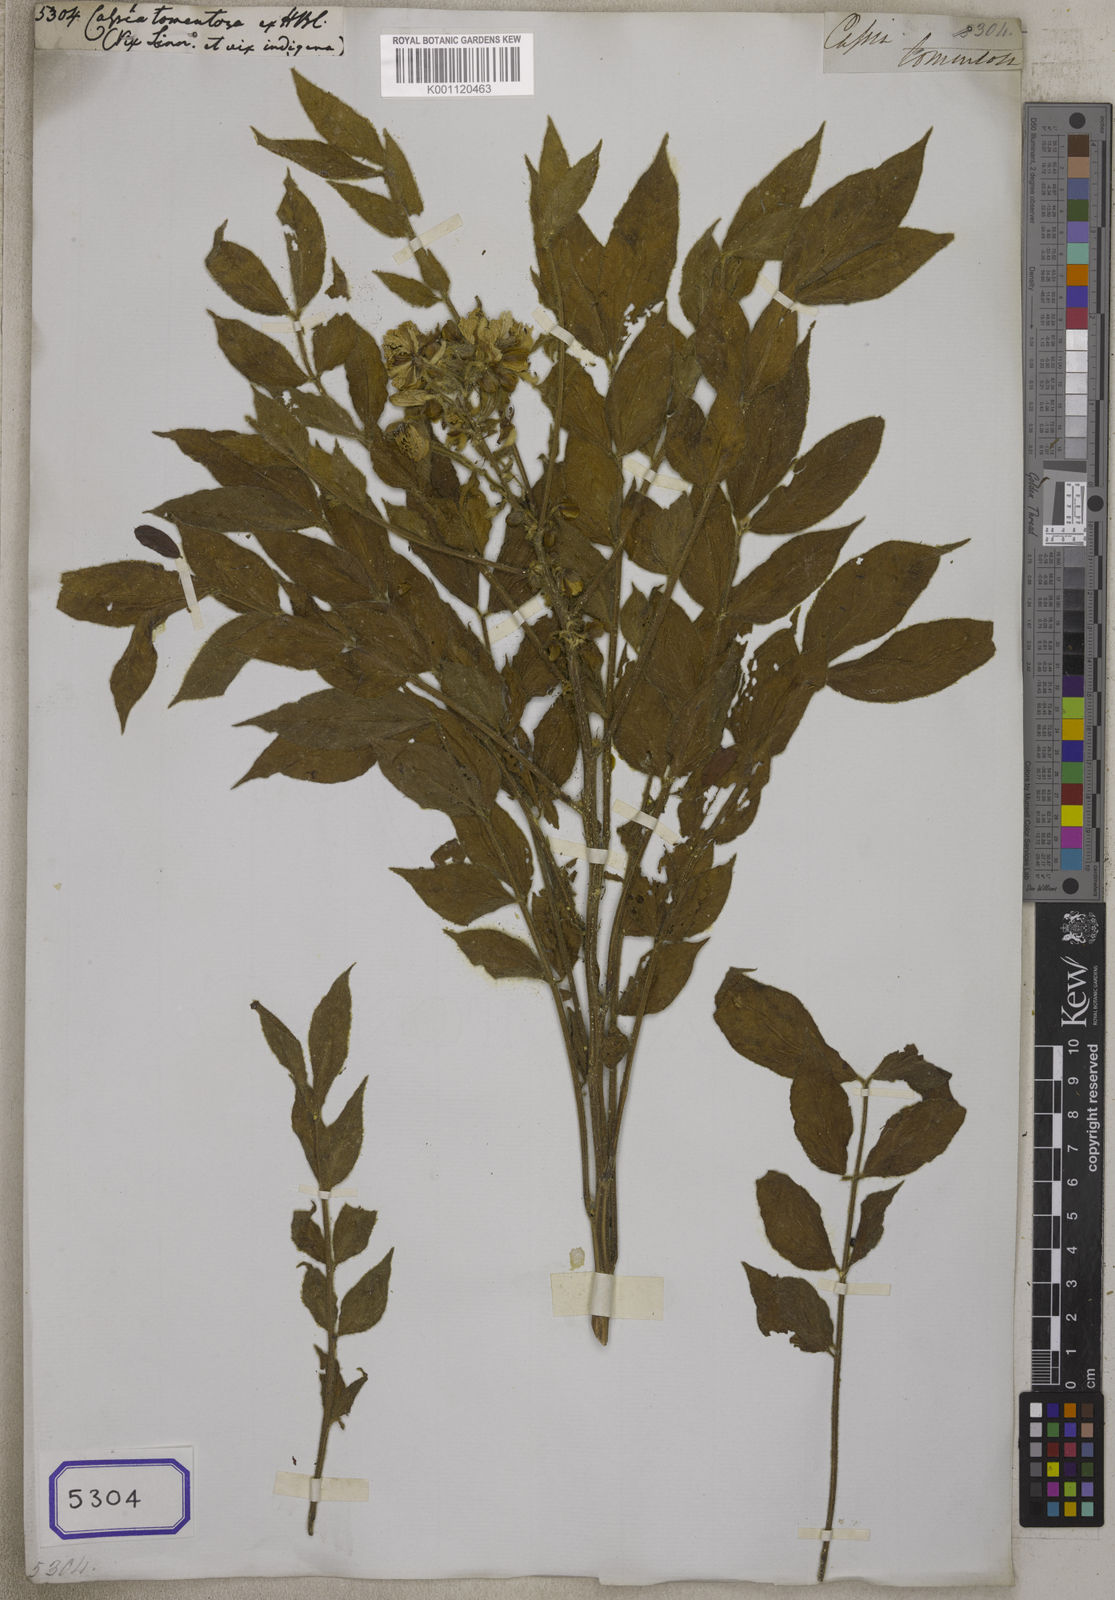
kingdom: Plantae
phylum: Tracheophyta
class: Magnoliopsida
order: Fabales
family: Fabaceae
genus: Cassia
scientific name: Cassia
